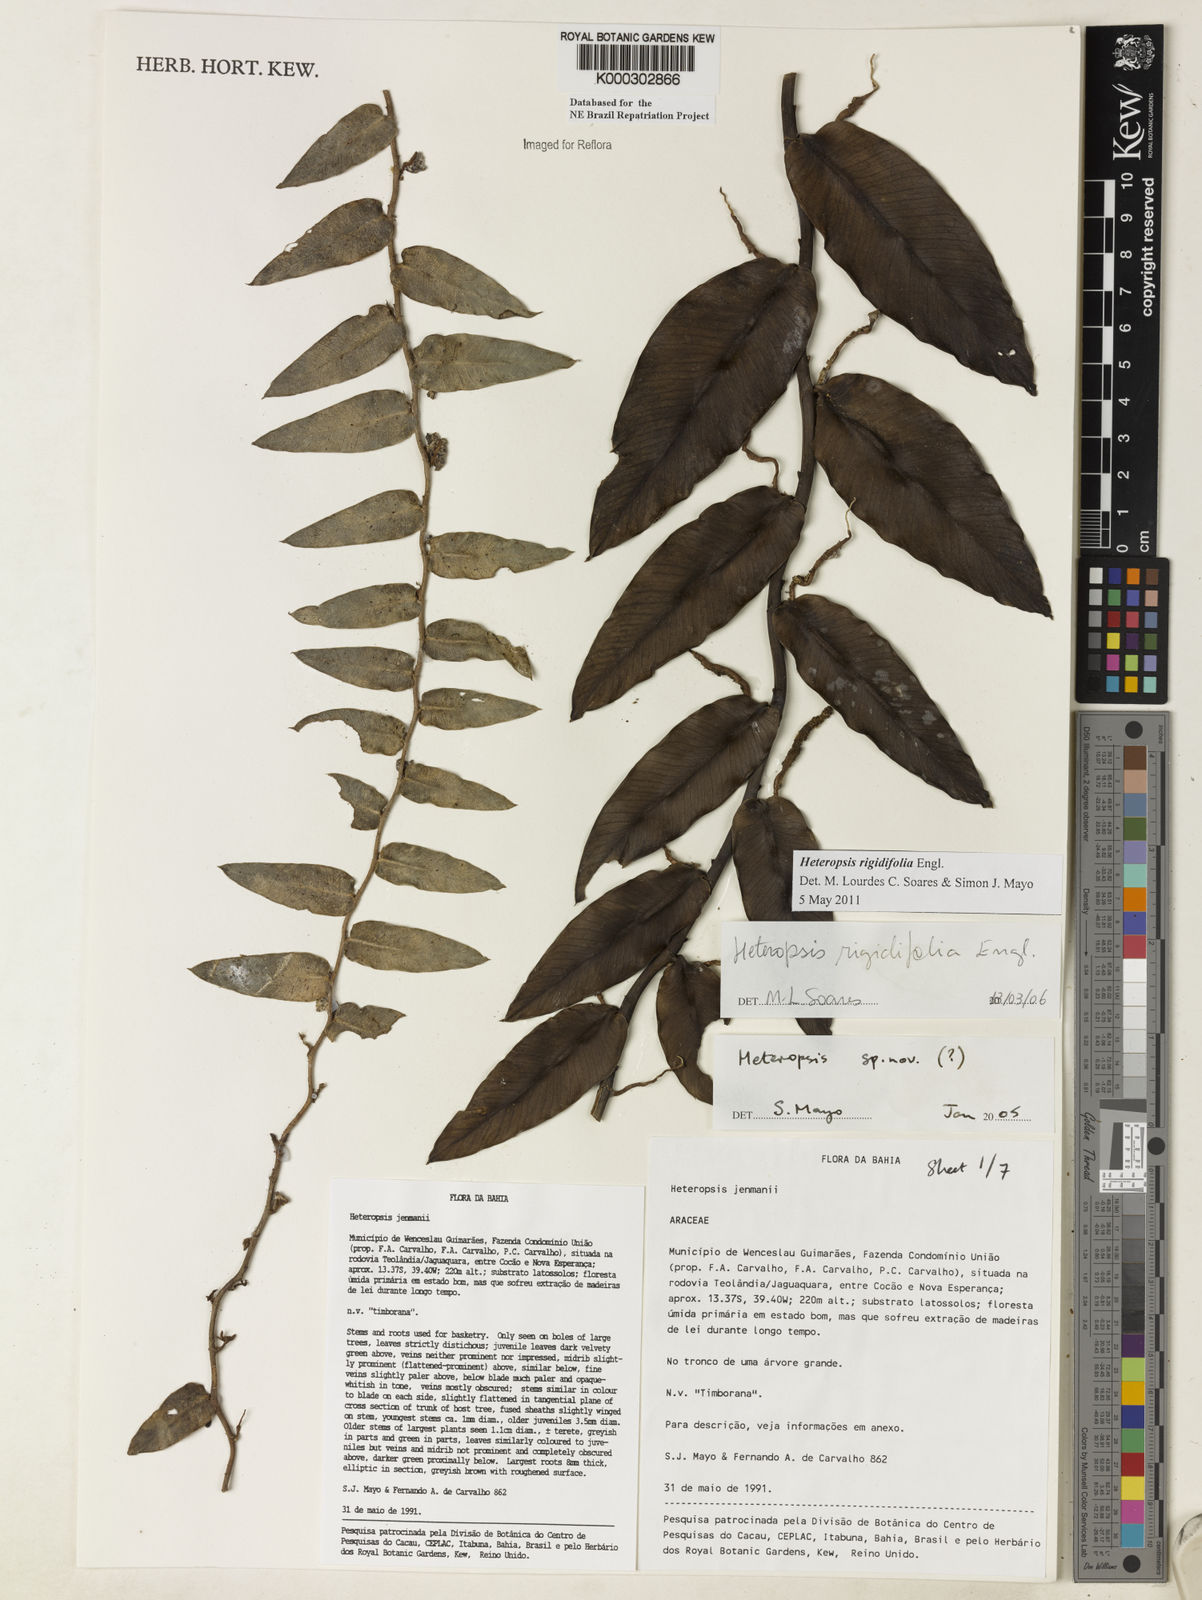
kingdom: Plantae
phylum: Tracheophyta
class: Liliopsida
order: Alismatales
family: Araceae
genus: Heteropsis
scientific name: Heteropsis
